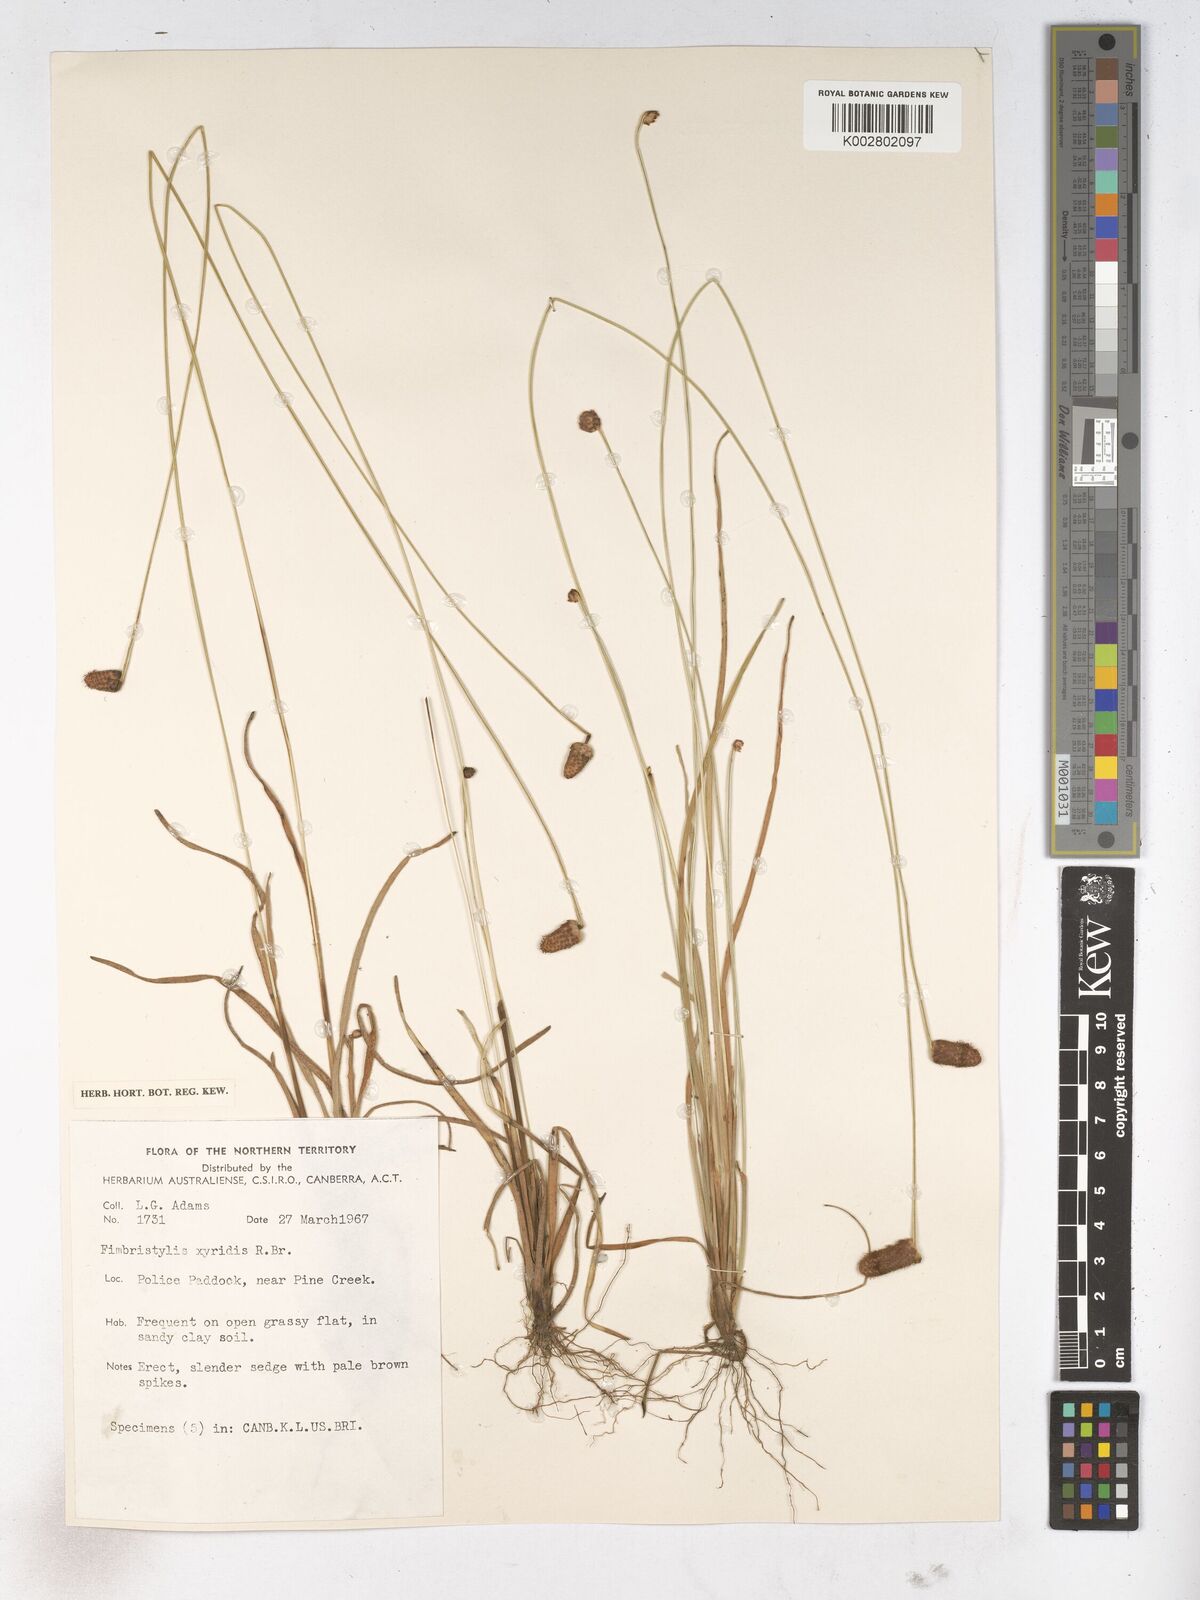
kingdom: Plantae
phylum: Tracheophyta
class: Liliopsida
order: Poales
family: Cyperaceae
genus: Fimbristylis
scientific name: Fimbristylis xyridis
